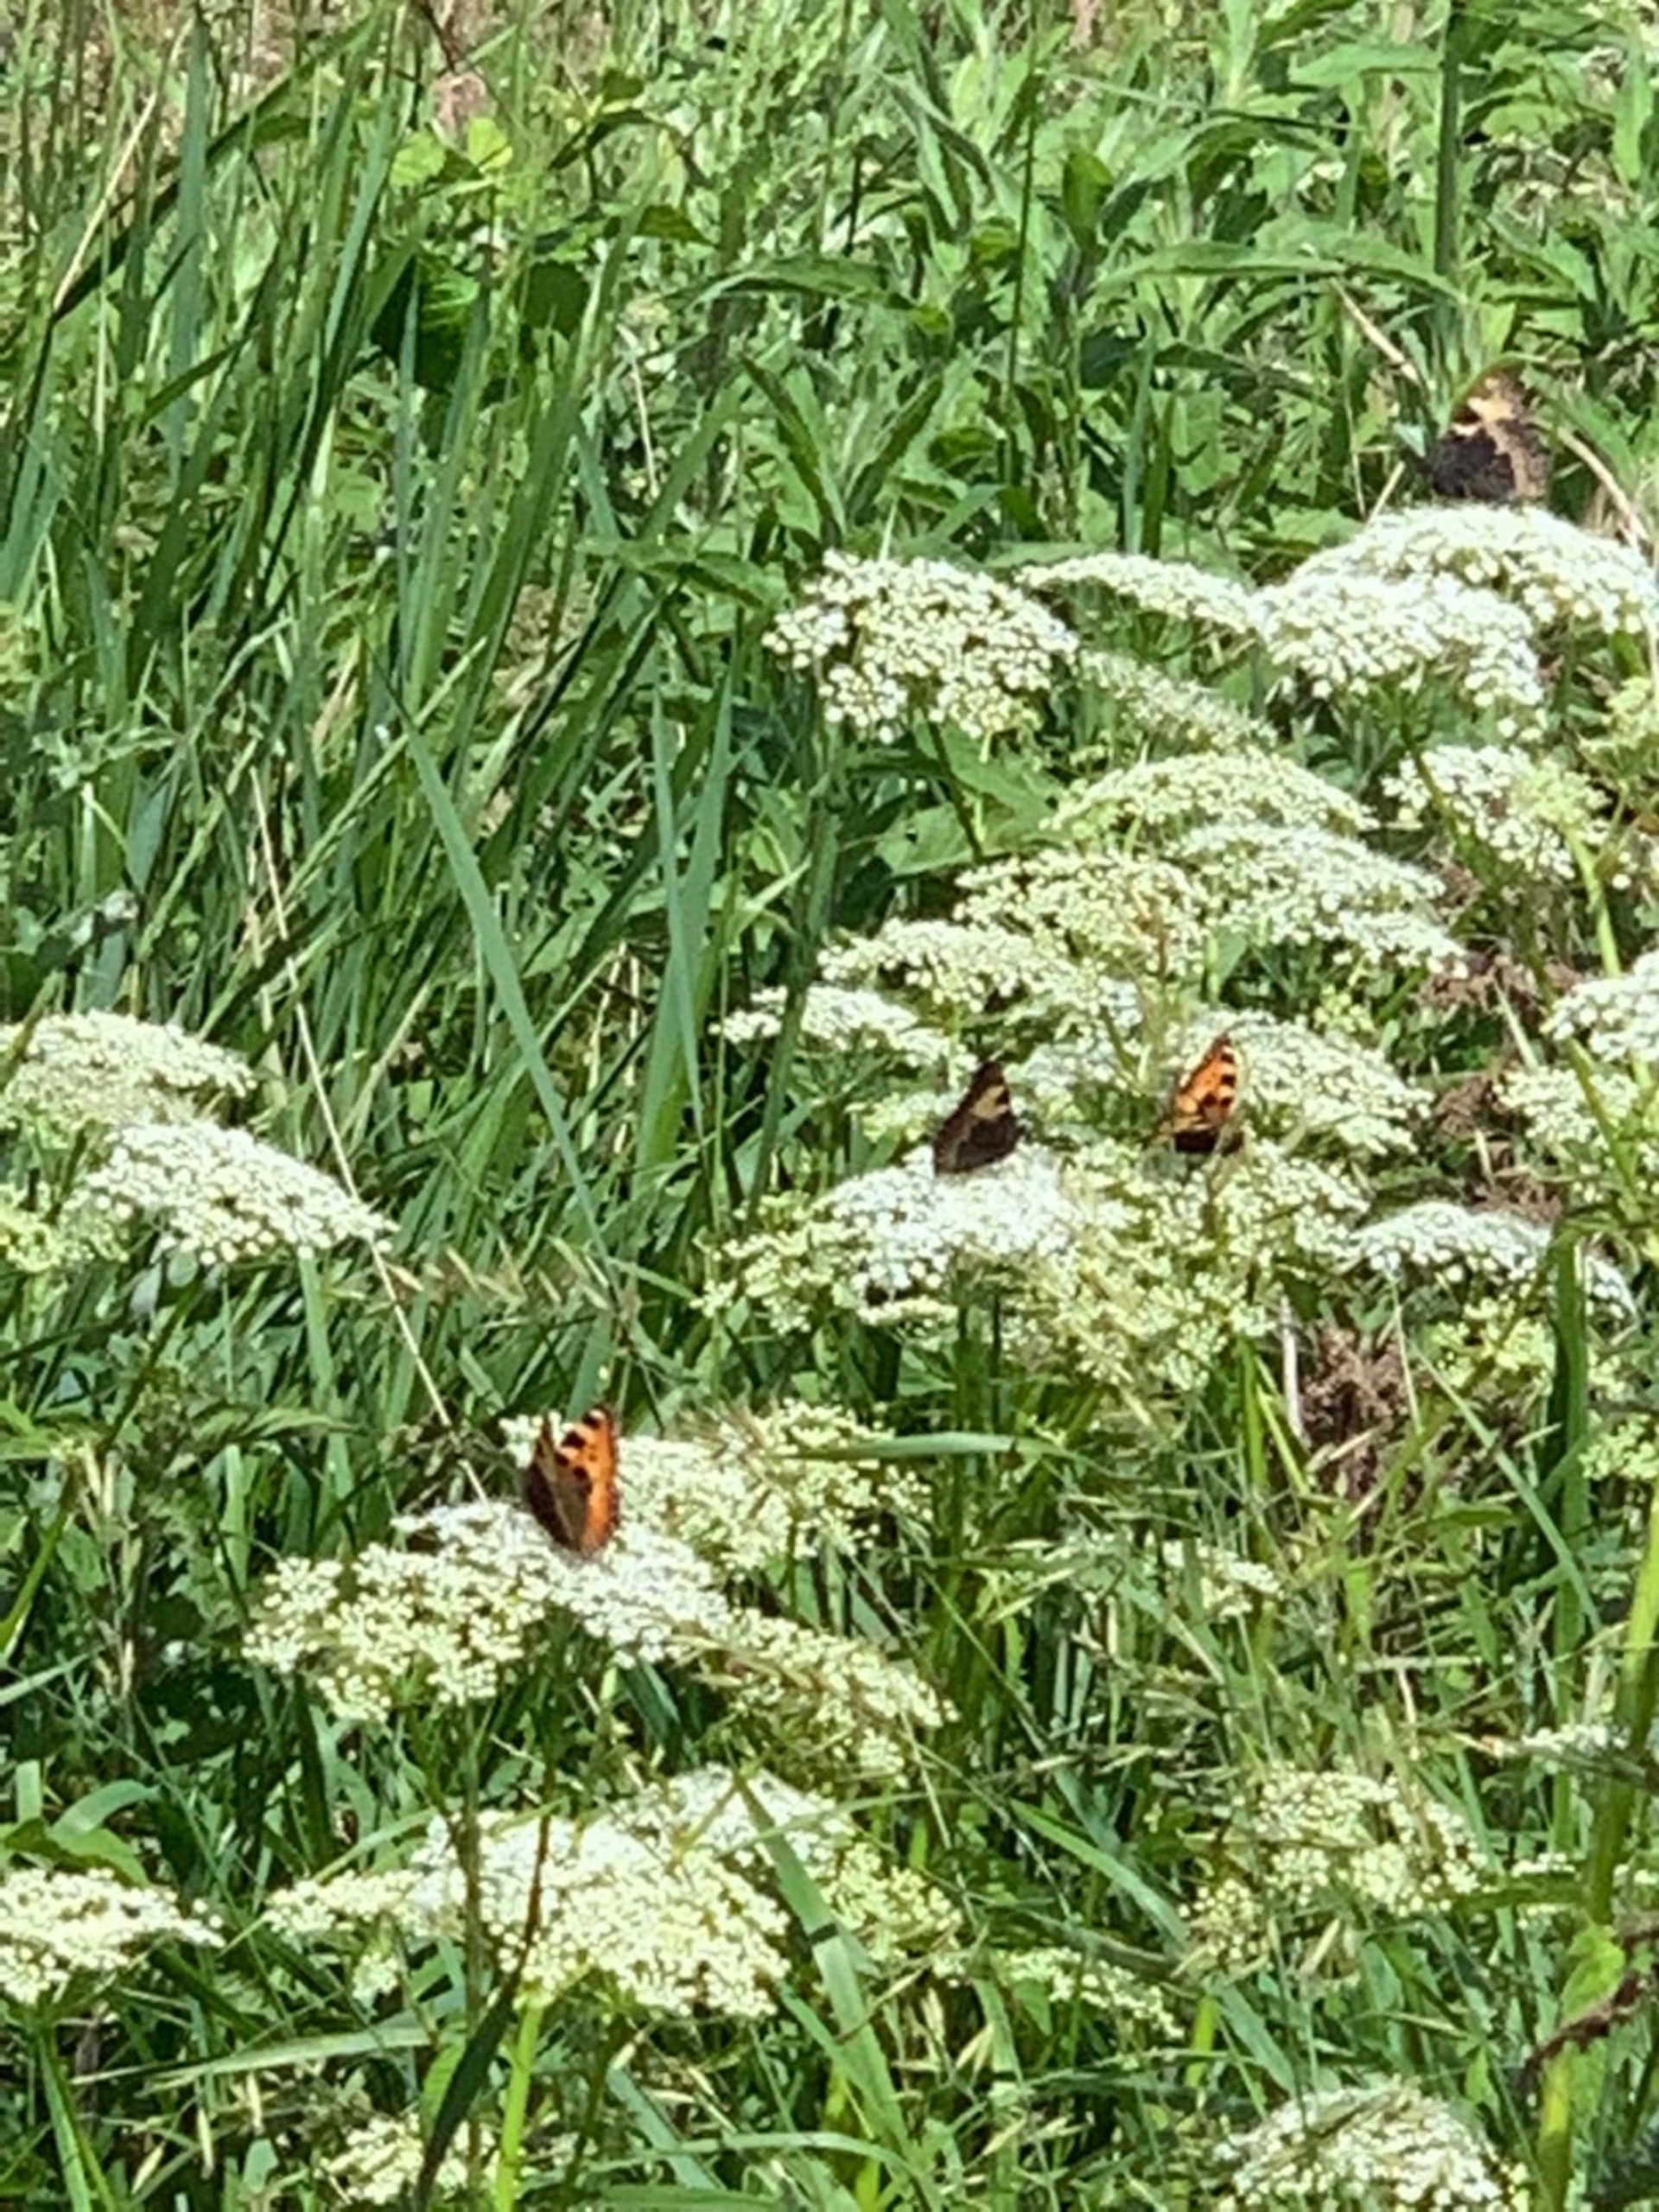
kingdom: Animalia
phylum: Arthropoda
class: Insecta
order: Lepidoptera
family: Nymphalidae
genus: Aglais
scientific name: Aglais urticae
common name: Nældens takvinge
